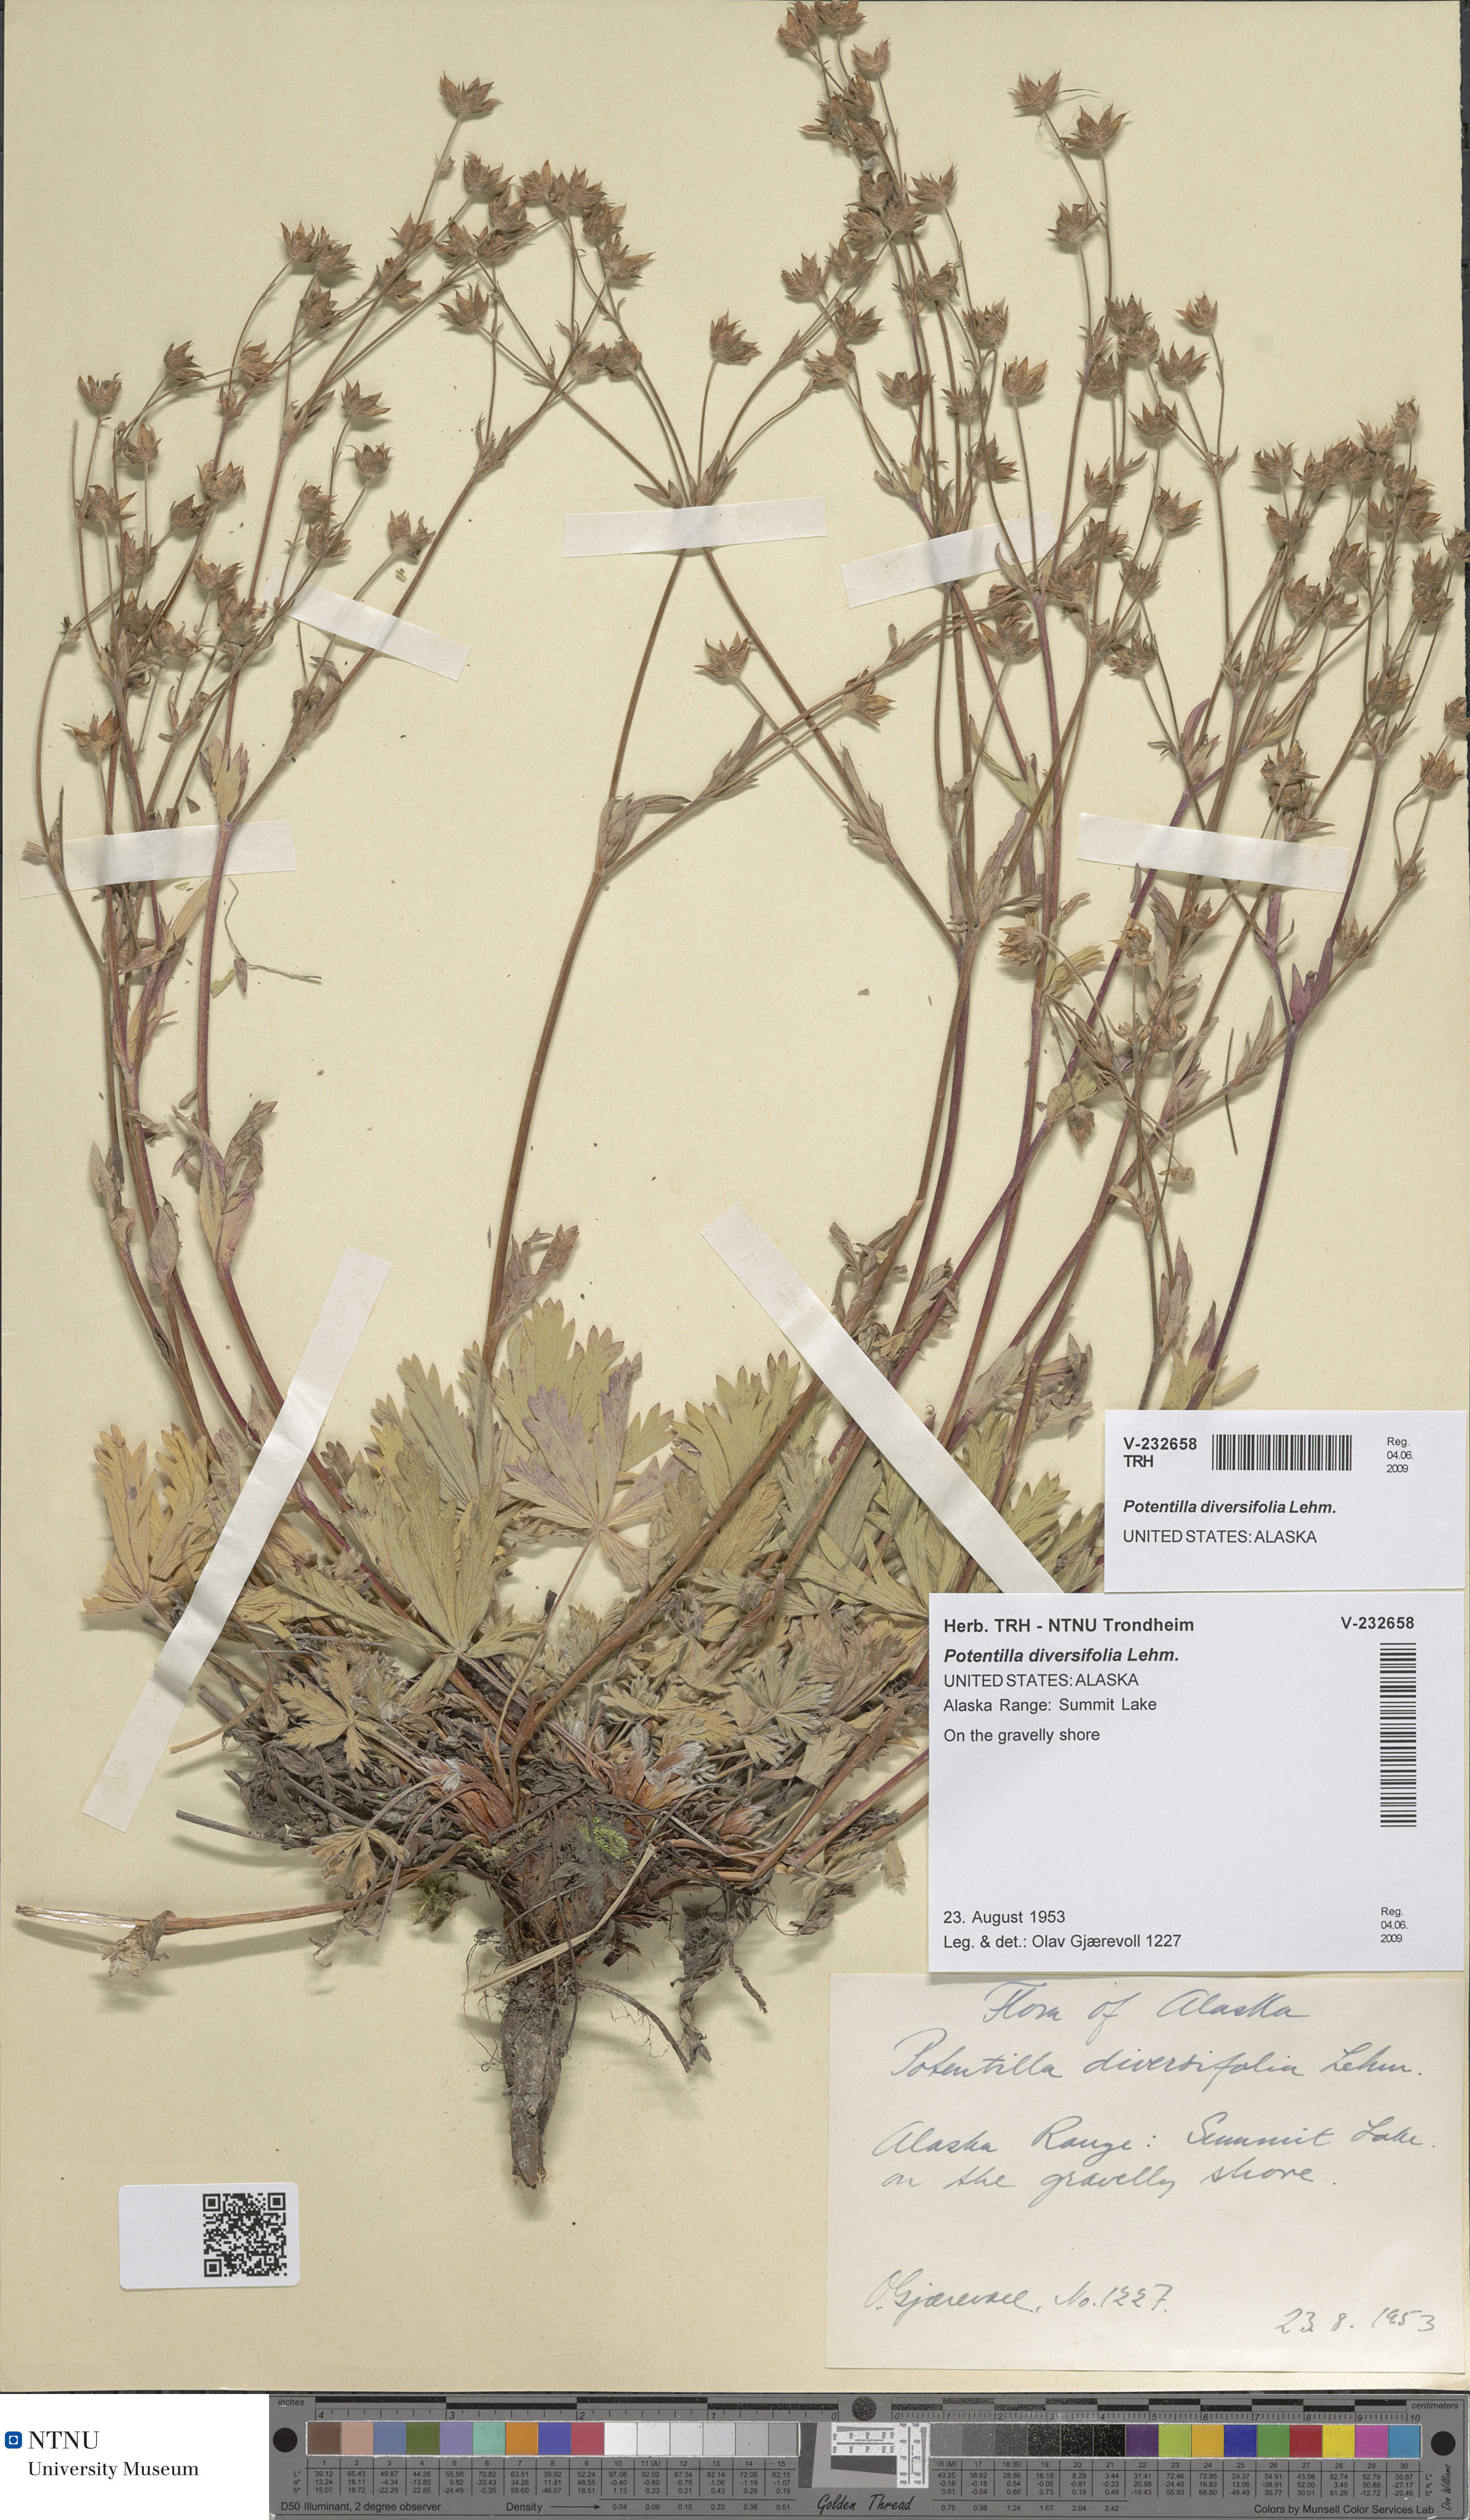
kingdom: Plantae
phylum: Tracheophyta
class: Magnoliopsida
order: Rosales
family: Rosaceae
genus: Potentilla
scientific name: Potentilla diversifolia
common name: Varileaf cinquefoil
